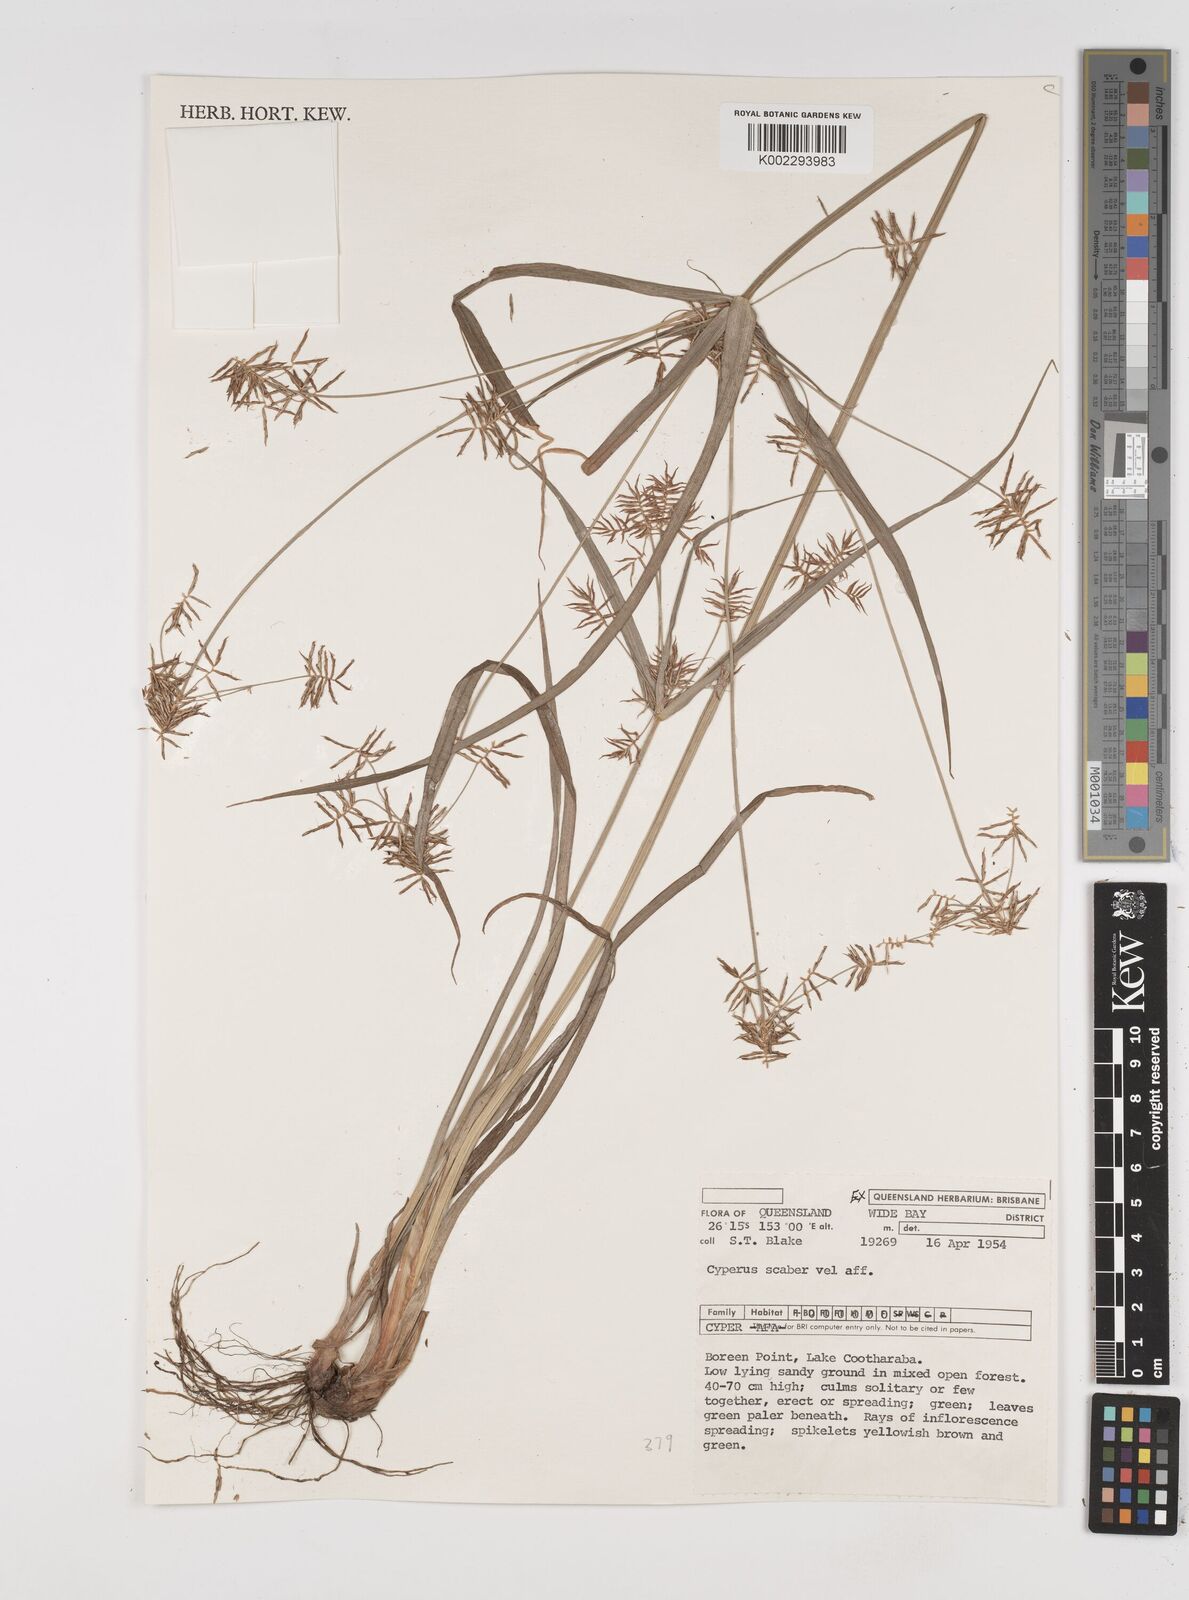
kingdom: Plantae
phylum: Tracheophyta
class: Liliopsida
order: Poales
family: Cyperaceae
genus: Cyperus
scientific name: Cyperus scaber
